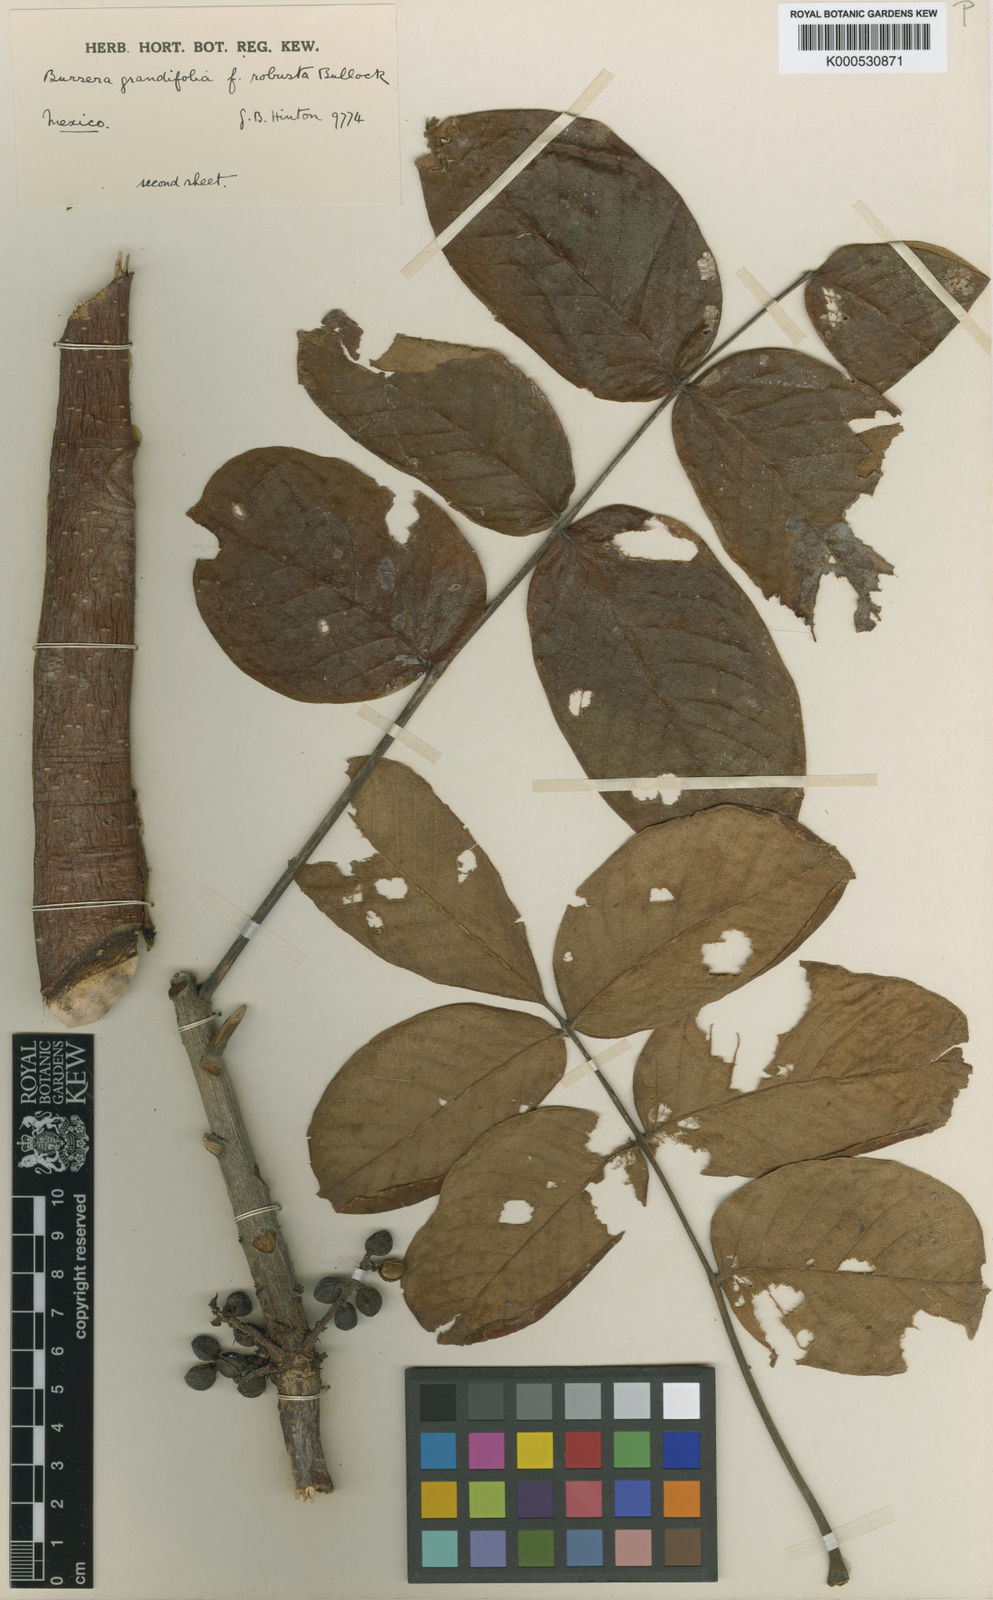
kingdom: Plantae
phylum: Tracheophyta
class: Magnoliopsida
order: Sapindales
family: Burseraceae
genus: Bursera
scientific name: Bursera grandifolia
